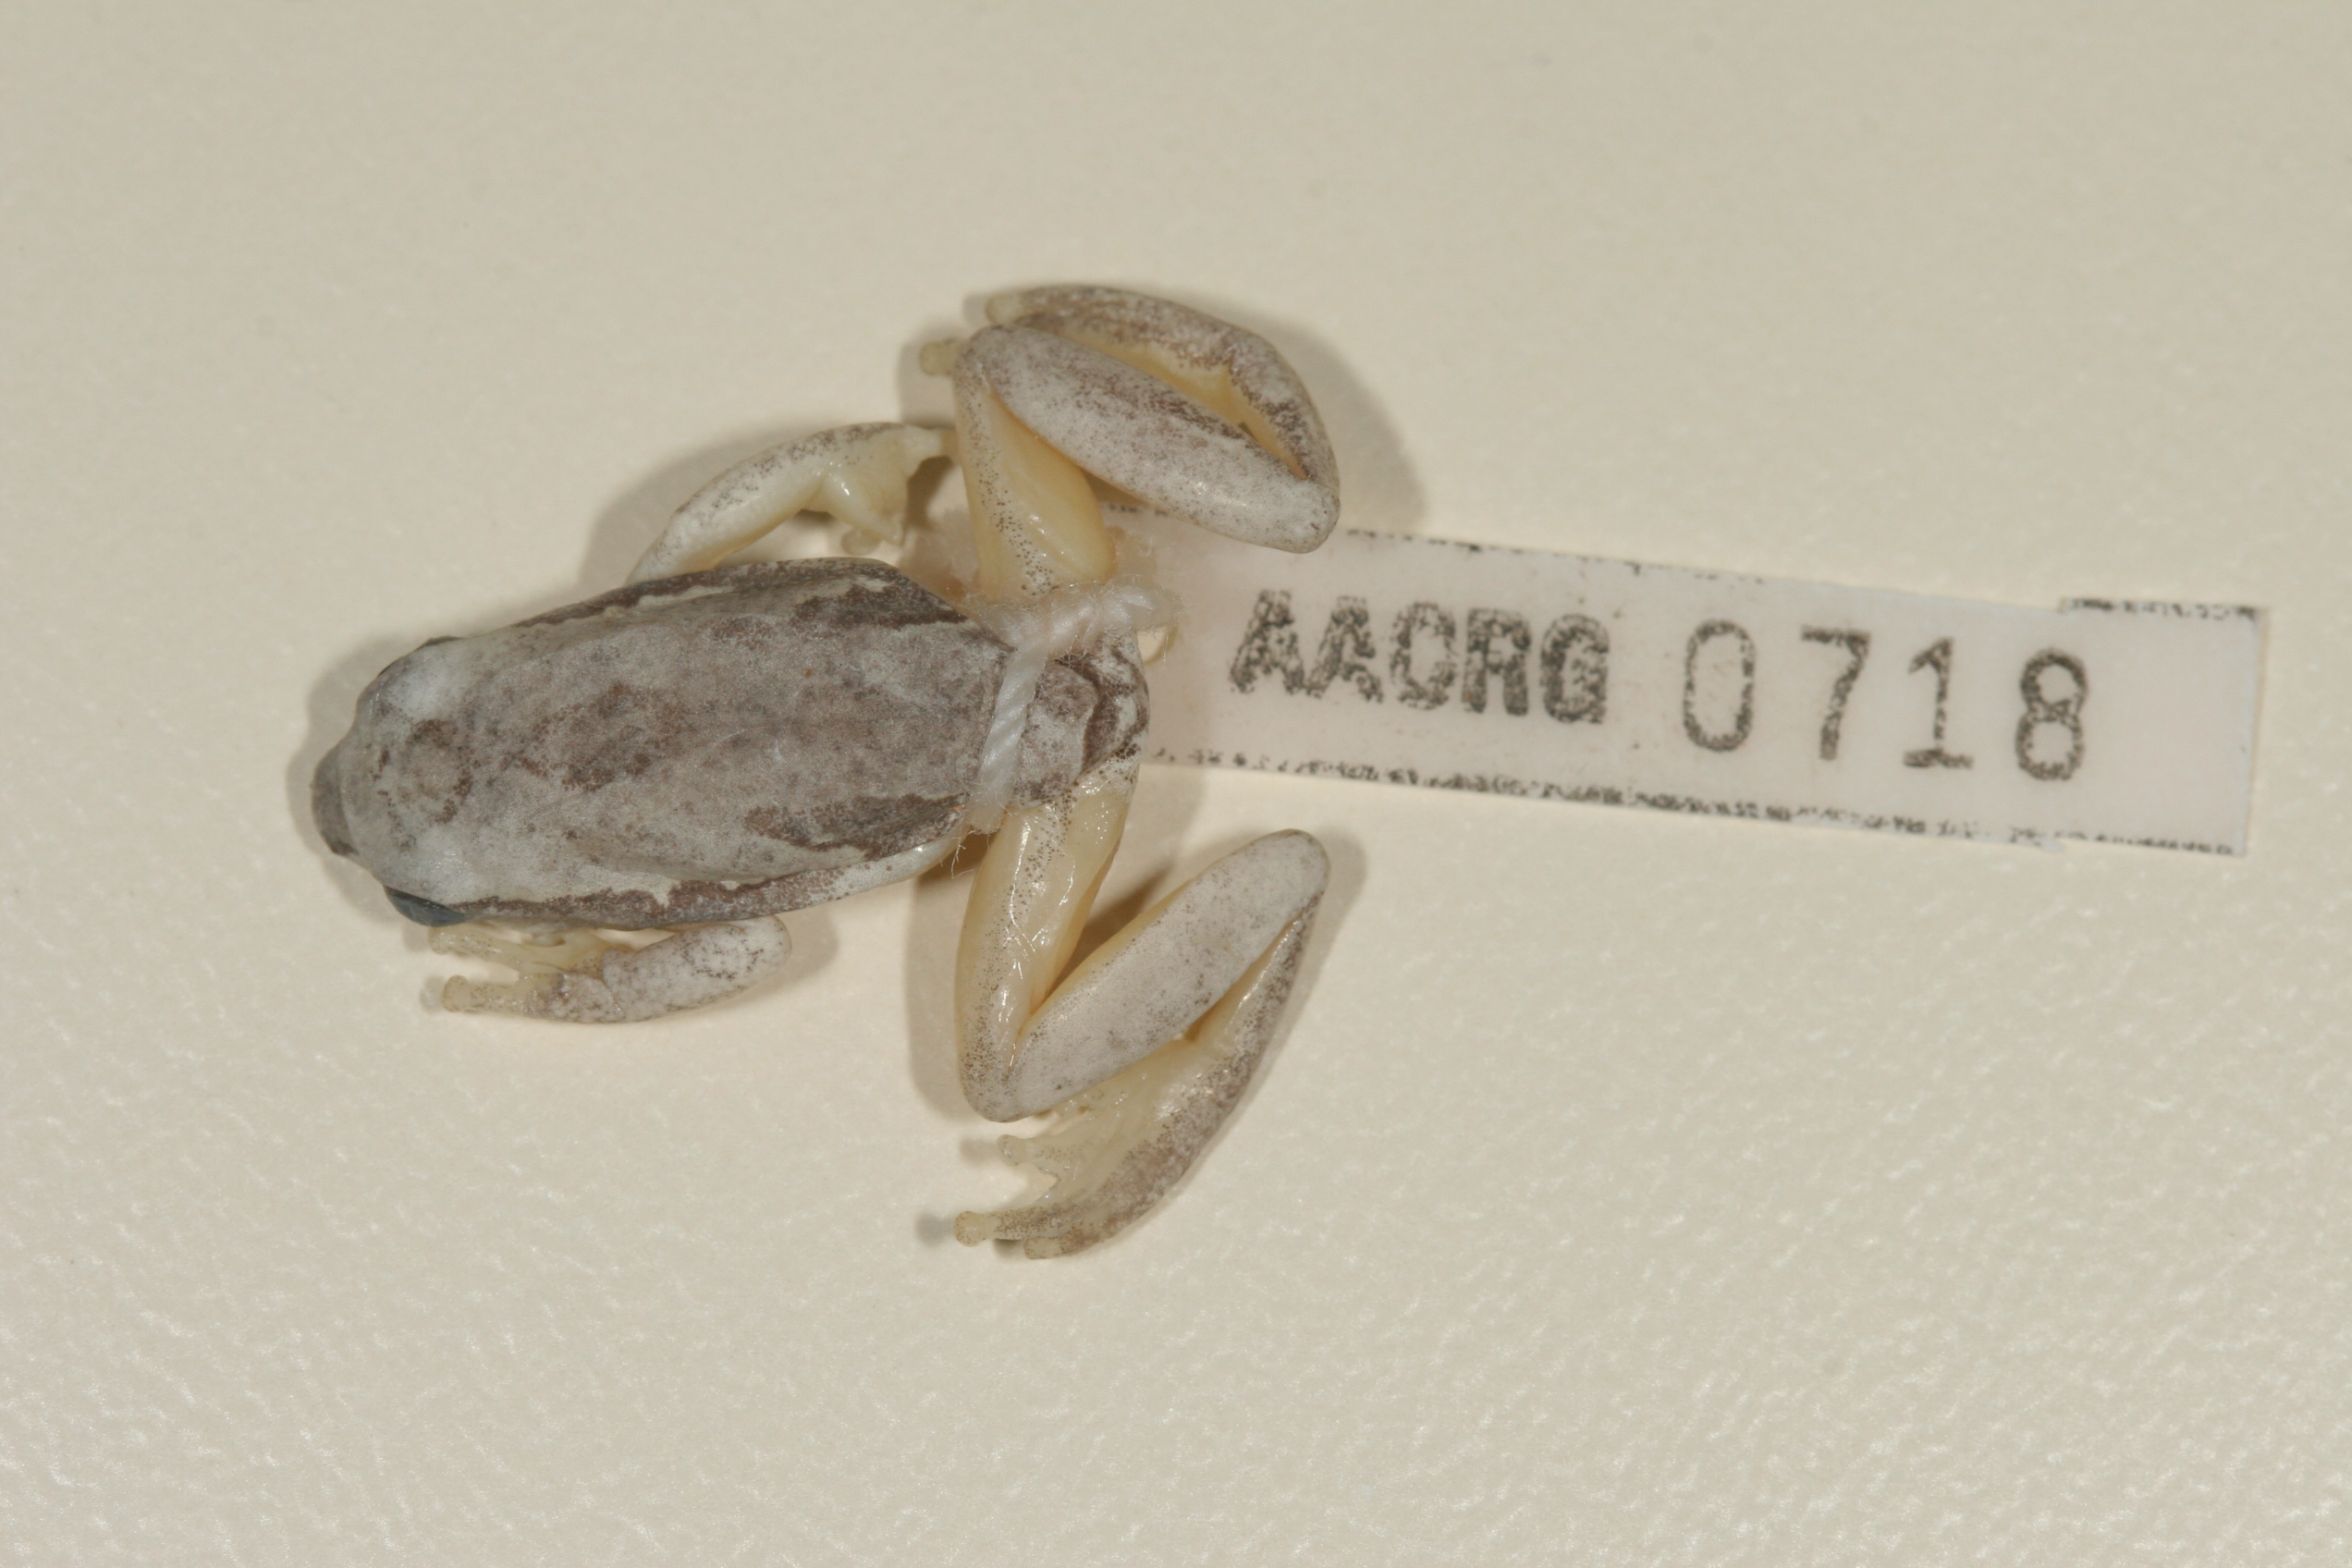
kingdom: Animalia
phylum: Chordata
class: Amphibia
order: Anura
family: Hyperoliidae
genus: Hyperolius
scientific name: Hyperolius parallelus
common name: Angolan reed frog
